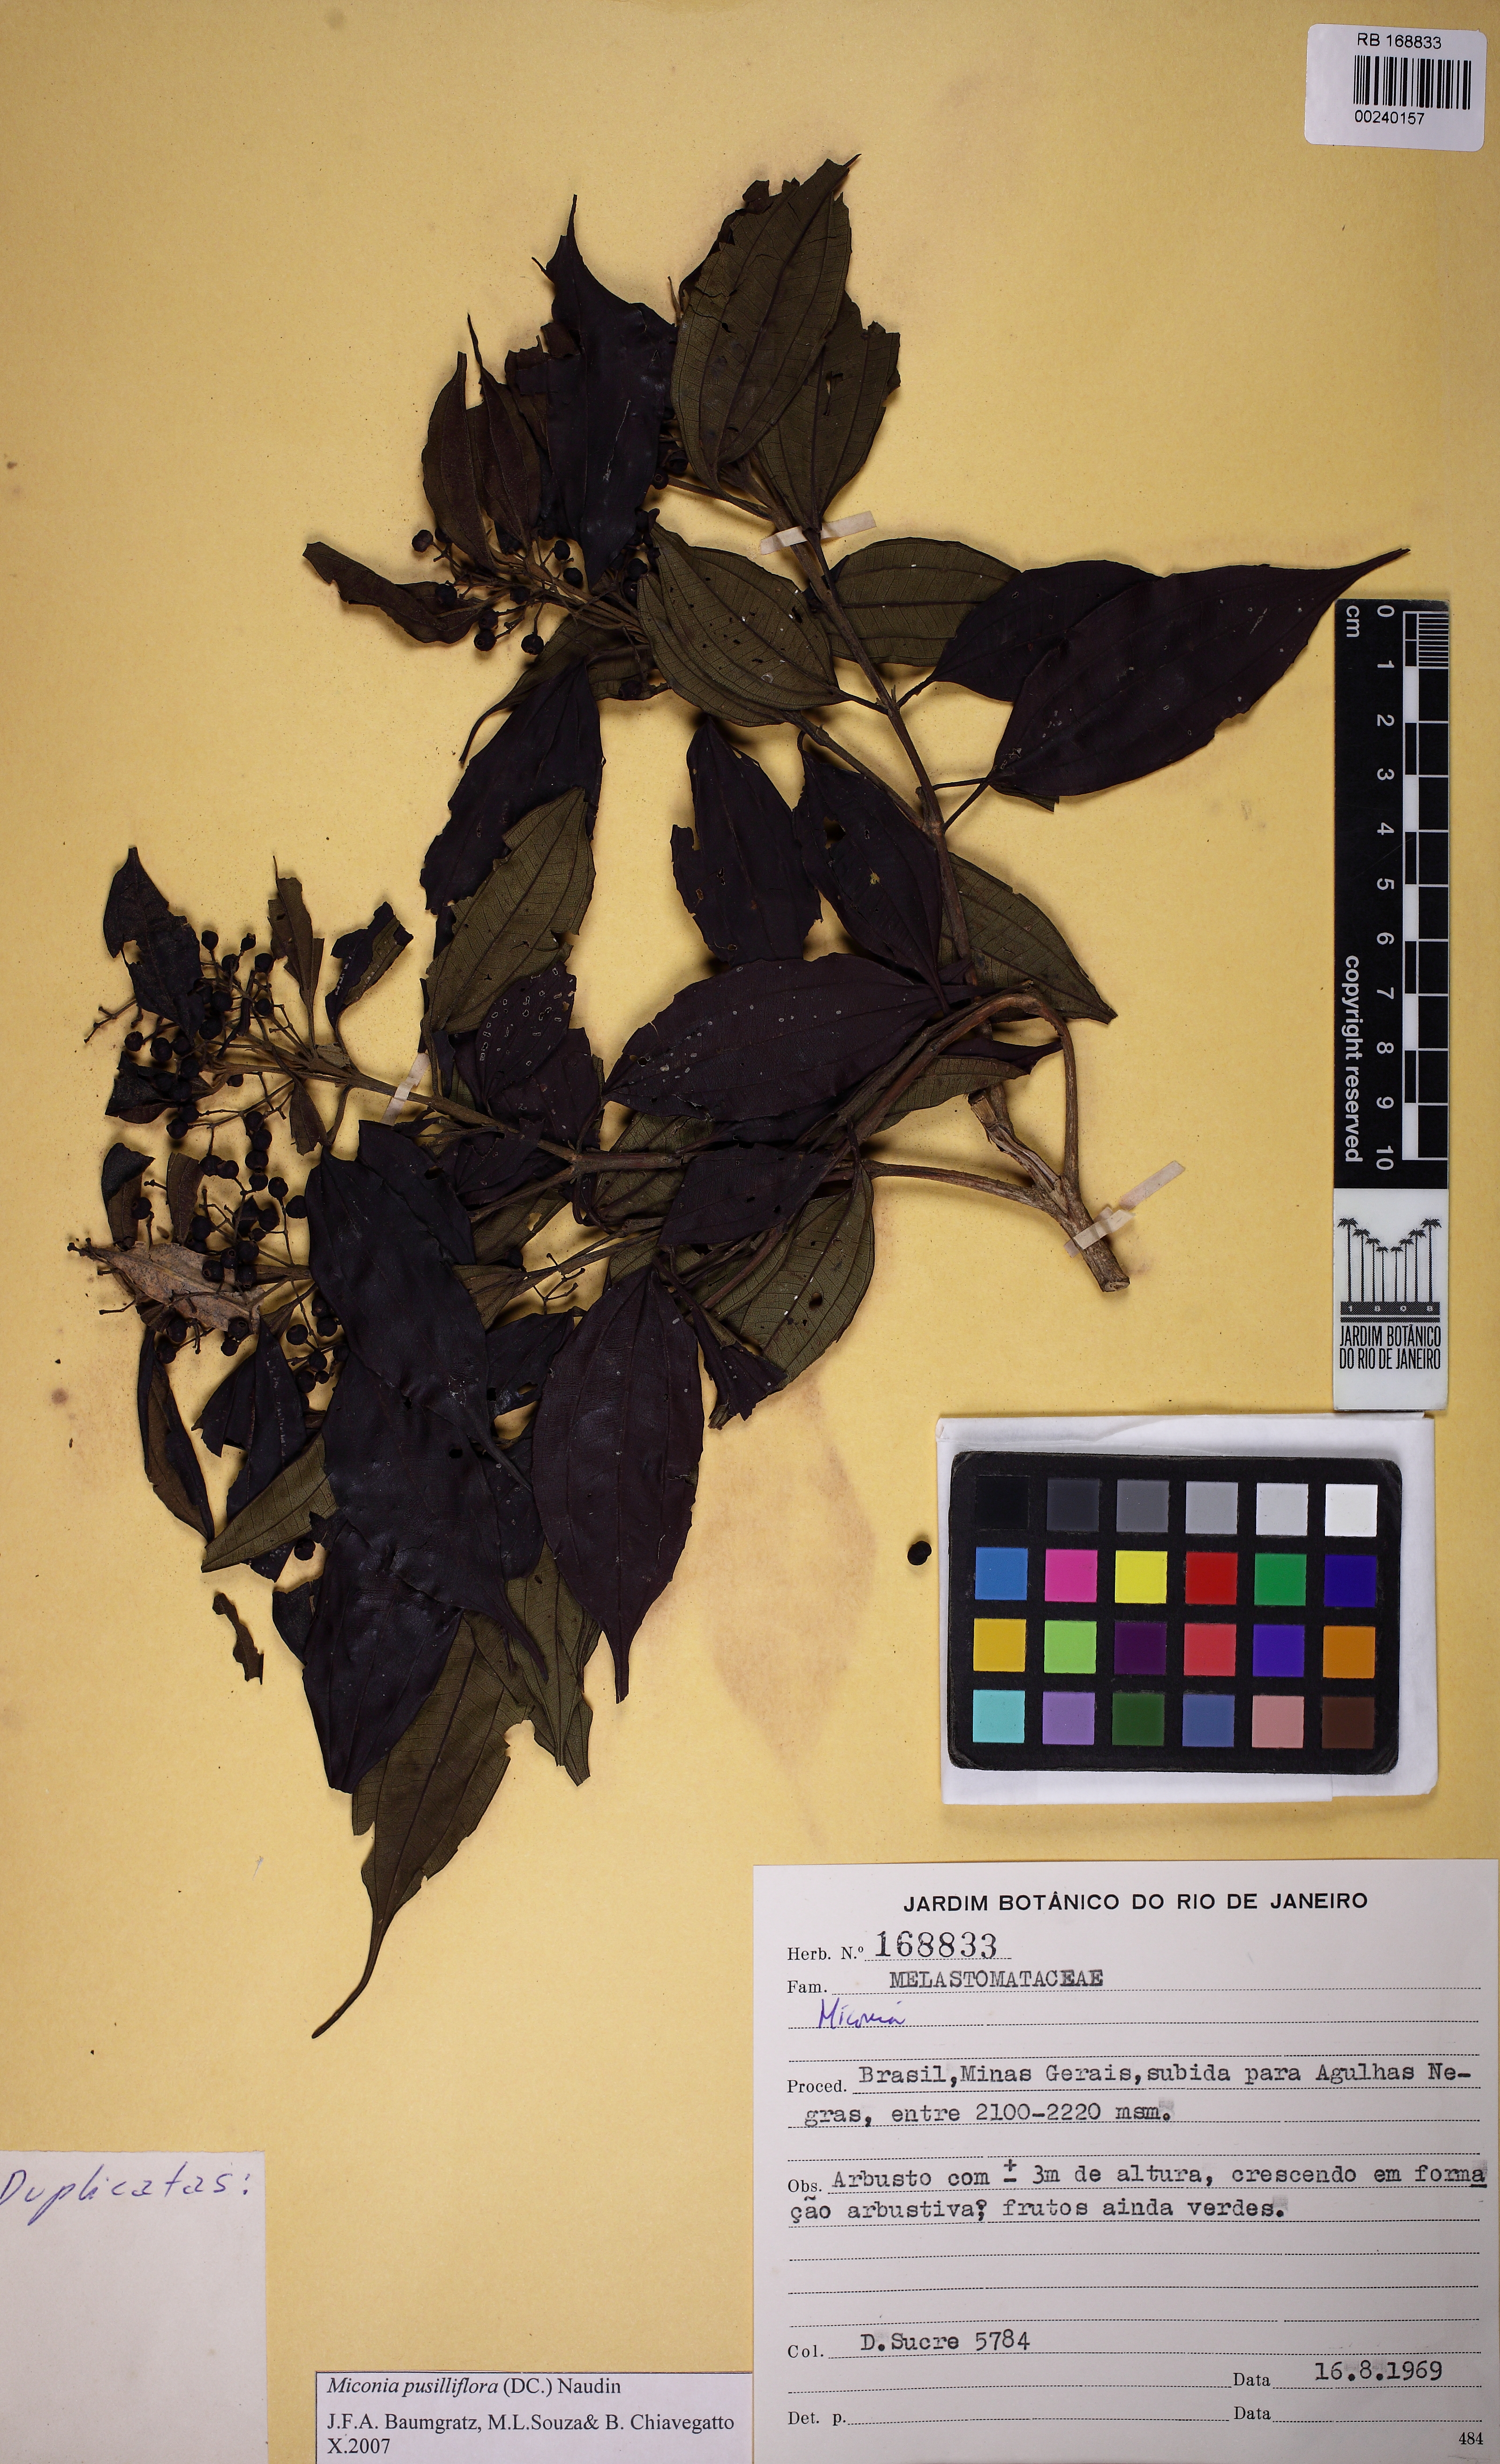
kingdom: Plantae
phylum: Tracheophyta
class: Magnoliopsida
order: Myrtales
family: Melastomataceae
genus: Miconia
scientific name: Miconia
